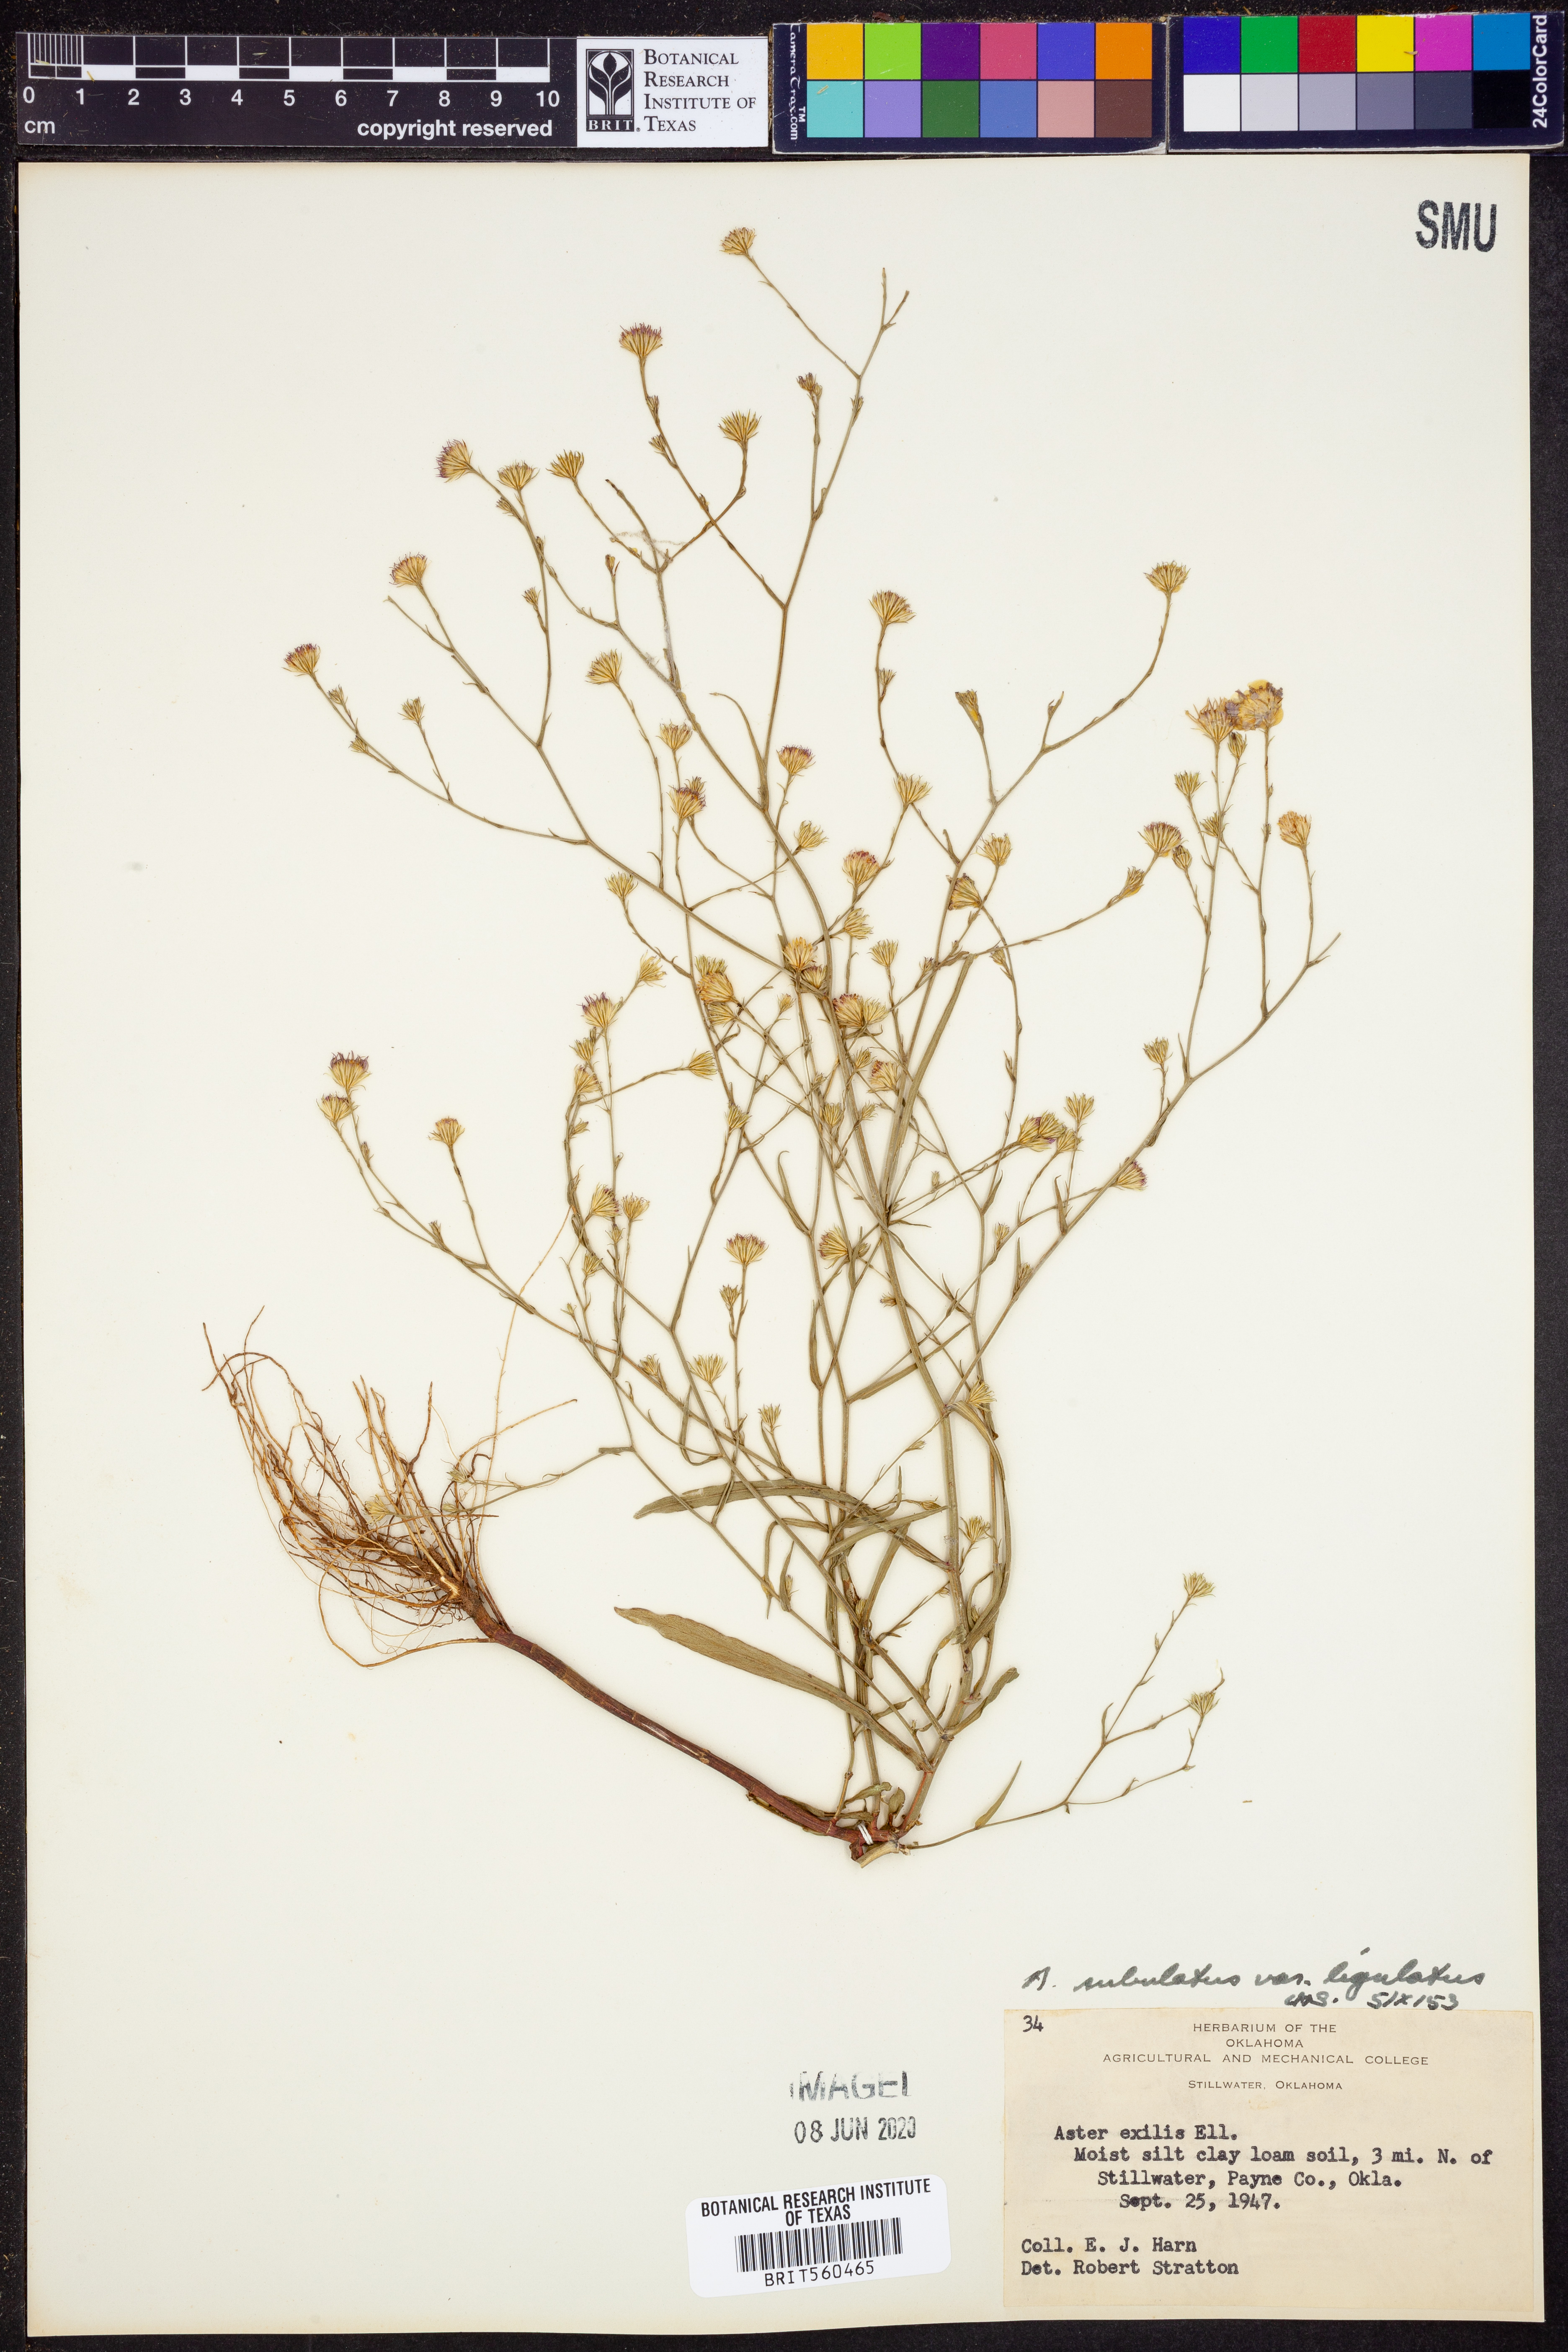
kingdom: Plantae
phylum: Tracheophyta
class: Magnoliopsida
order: Asterales
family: Asteraceae
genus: Symphyotrichum
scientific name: Symphyotrichum divaricatum
